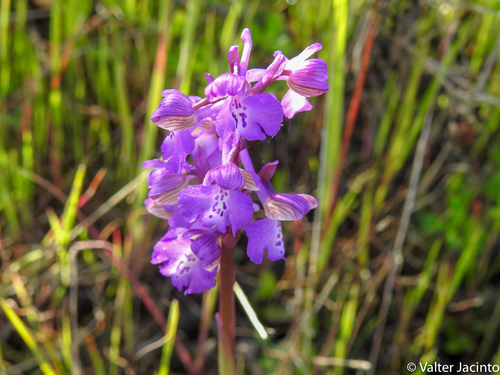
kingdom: Plantae
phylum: Tracheophyta
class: Liliopsida
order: Asparagales
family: Orchidaceae
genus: Anacamptis
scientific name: Anacamptis morio
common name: Green-winged orchid
